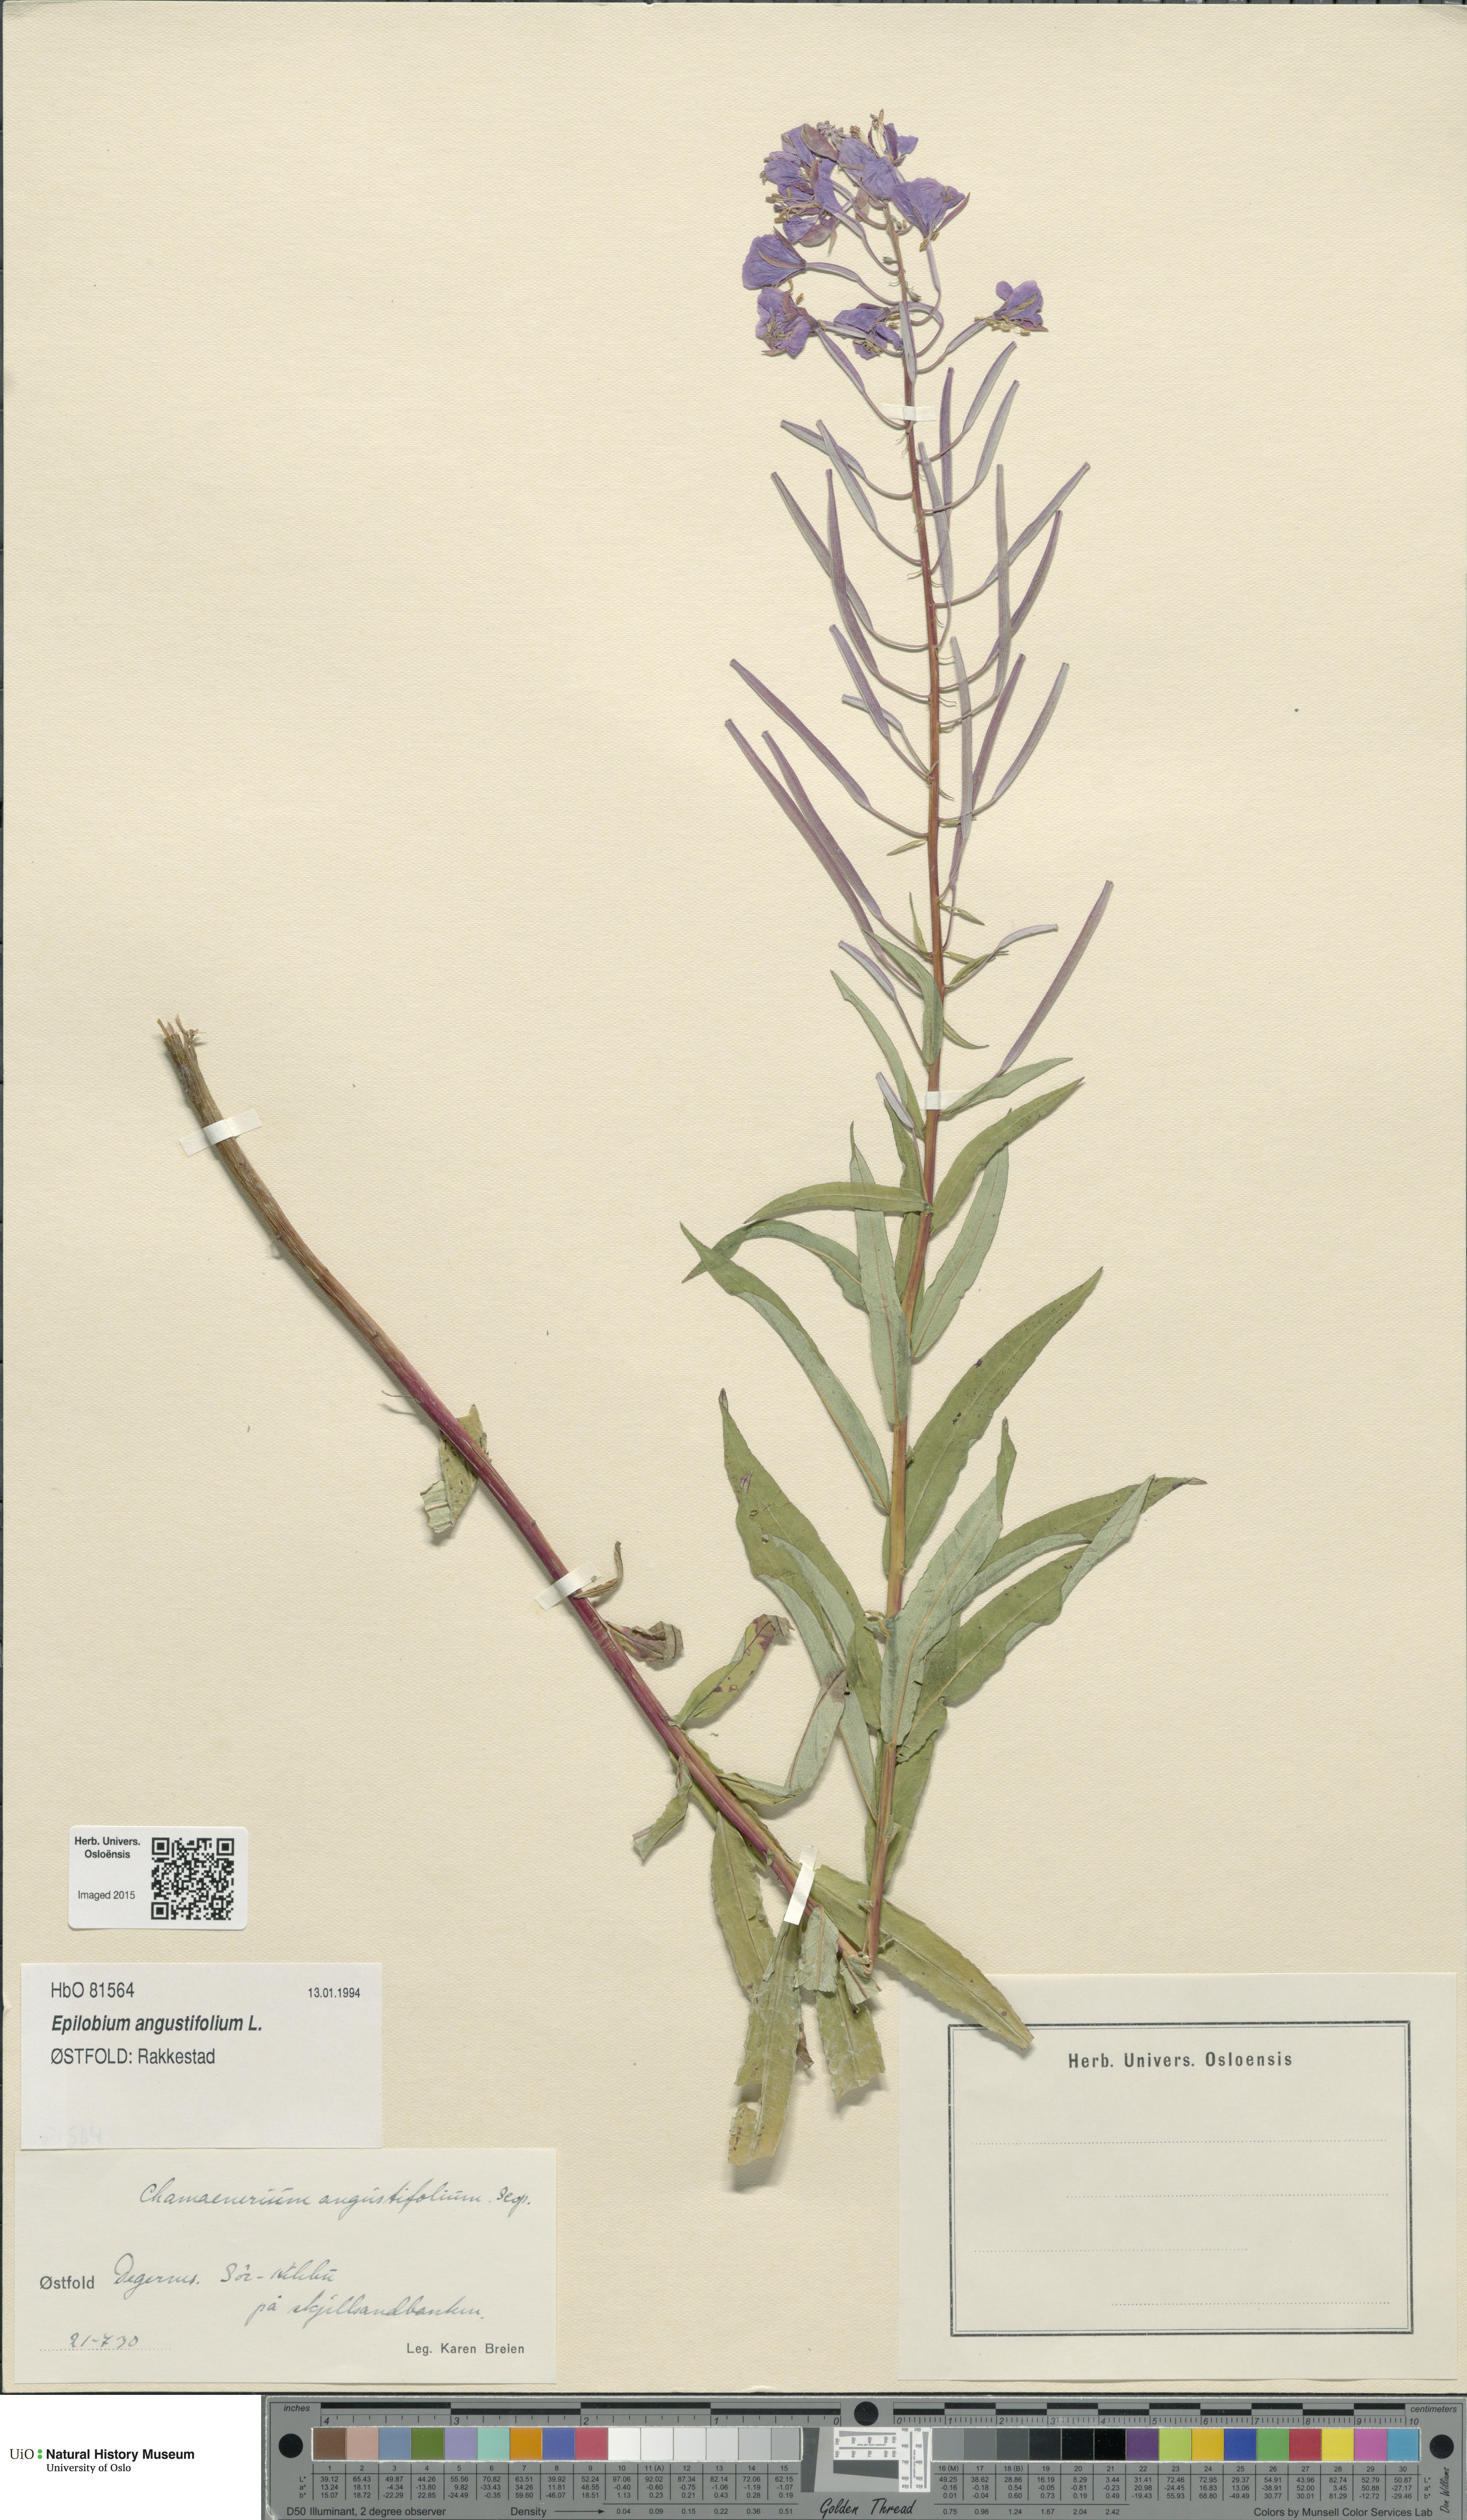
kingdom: Plantae
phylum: Tracheophyta
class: Magnoliopsida
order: Myrtales
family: Onagraceae
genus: Chamaenerion
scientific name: Chamaenerion angustifolium
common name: Fireweed
